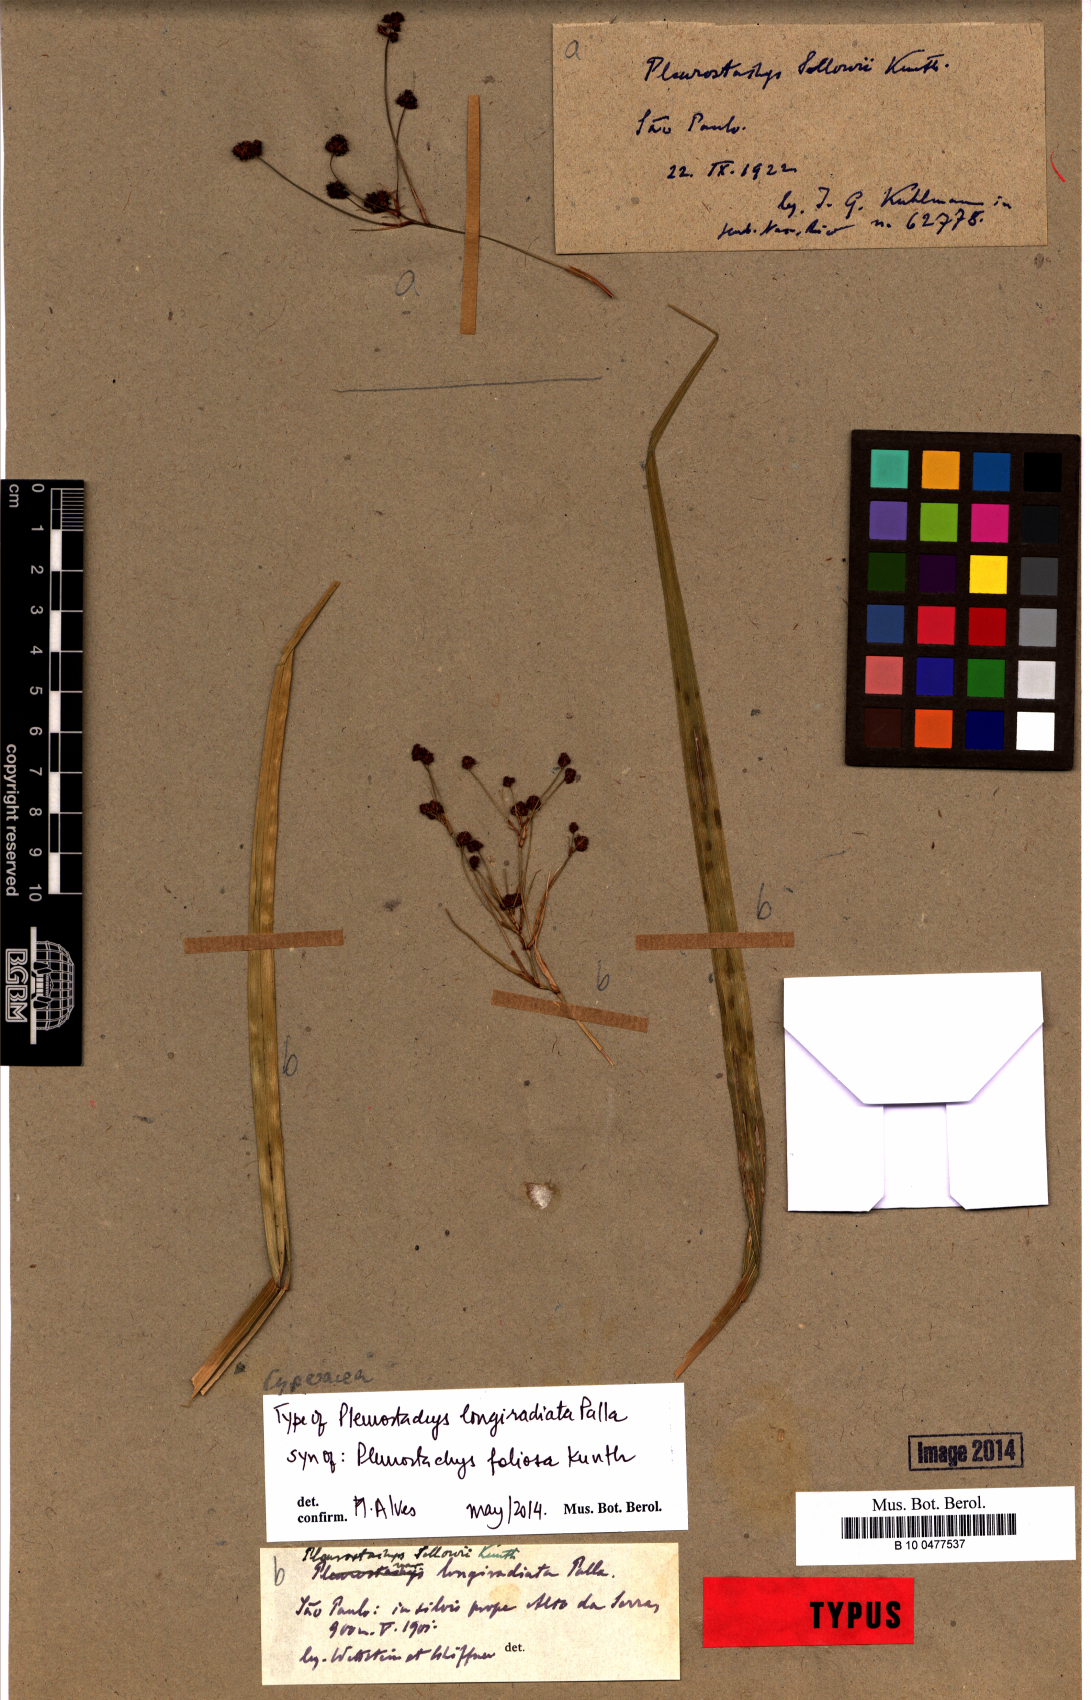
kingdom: Plantae
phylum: Tracheophyta
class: Liliopsida
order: Poales
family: Cyperaceae
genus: Rhynchospora
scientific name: Rhynchospora foliosa
